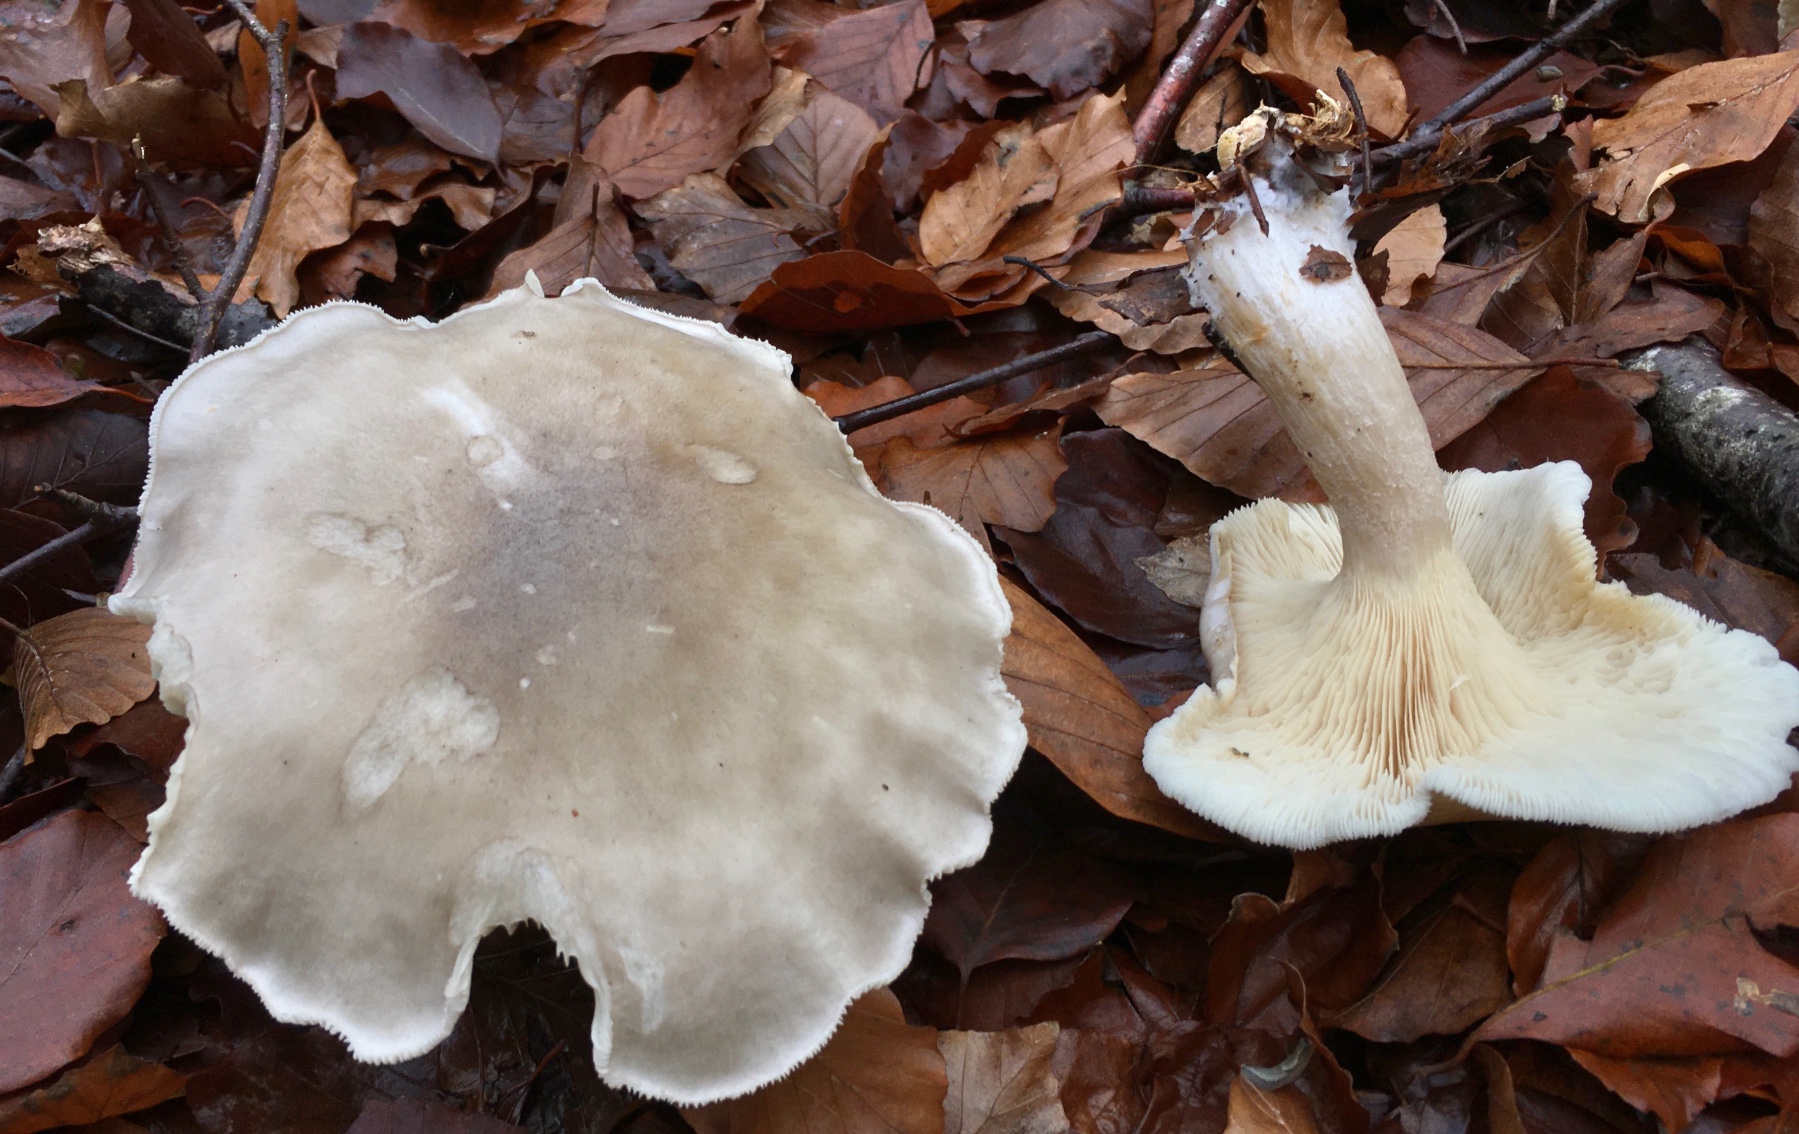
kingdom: Fungi
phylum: Basidiomycota
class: Agaricomycetes
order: Agaricales
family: Tricholomataceae
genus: Clitocybe
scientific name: Clitocybe nebularis
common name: tåge-tragthat
